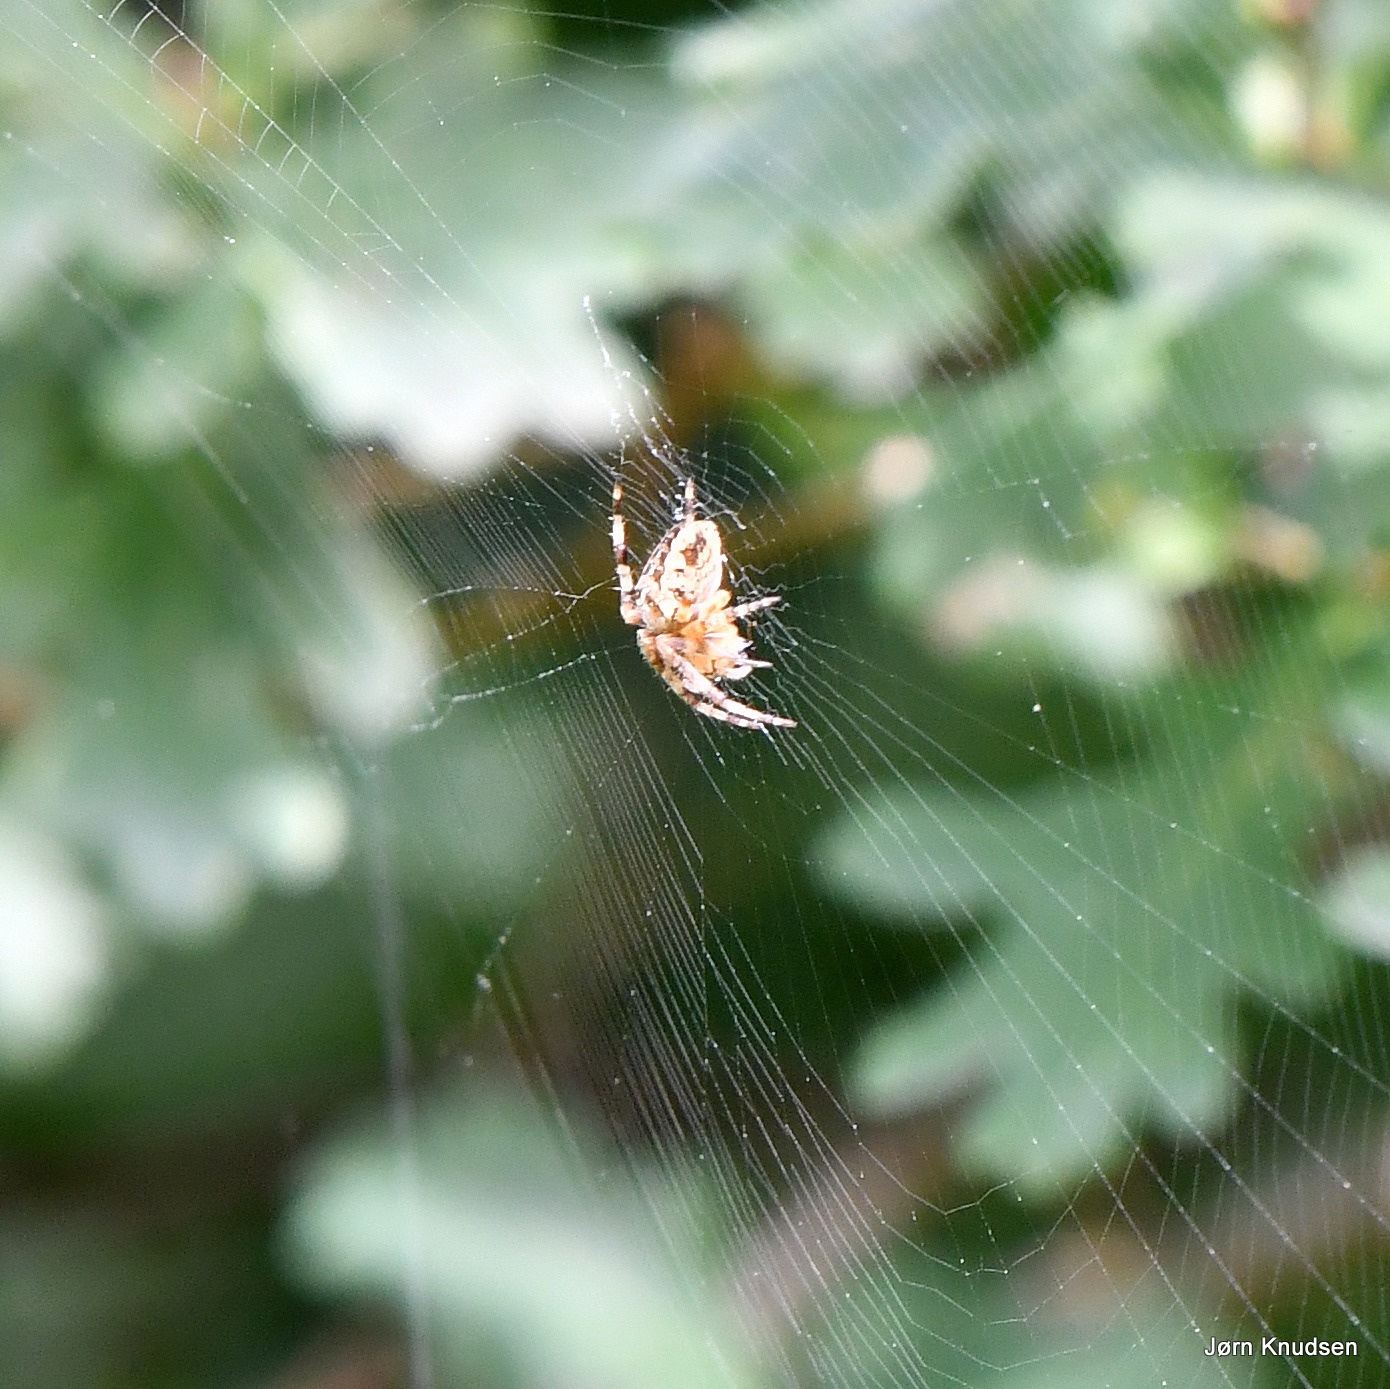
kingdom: Animalia
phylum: Arthropoda
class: Arachnida
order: Araneae
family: Araneidae
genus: Araneus
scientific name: Araneus diadematus
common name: Korsedderkop
